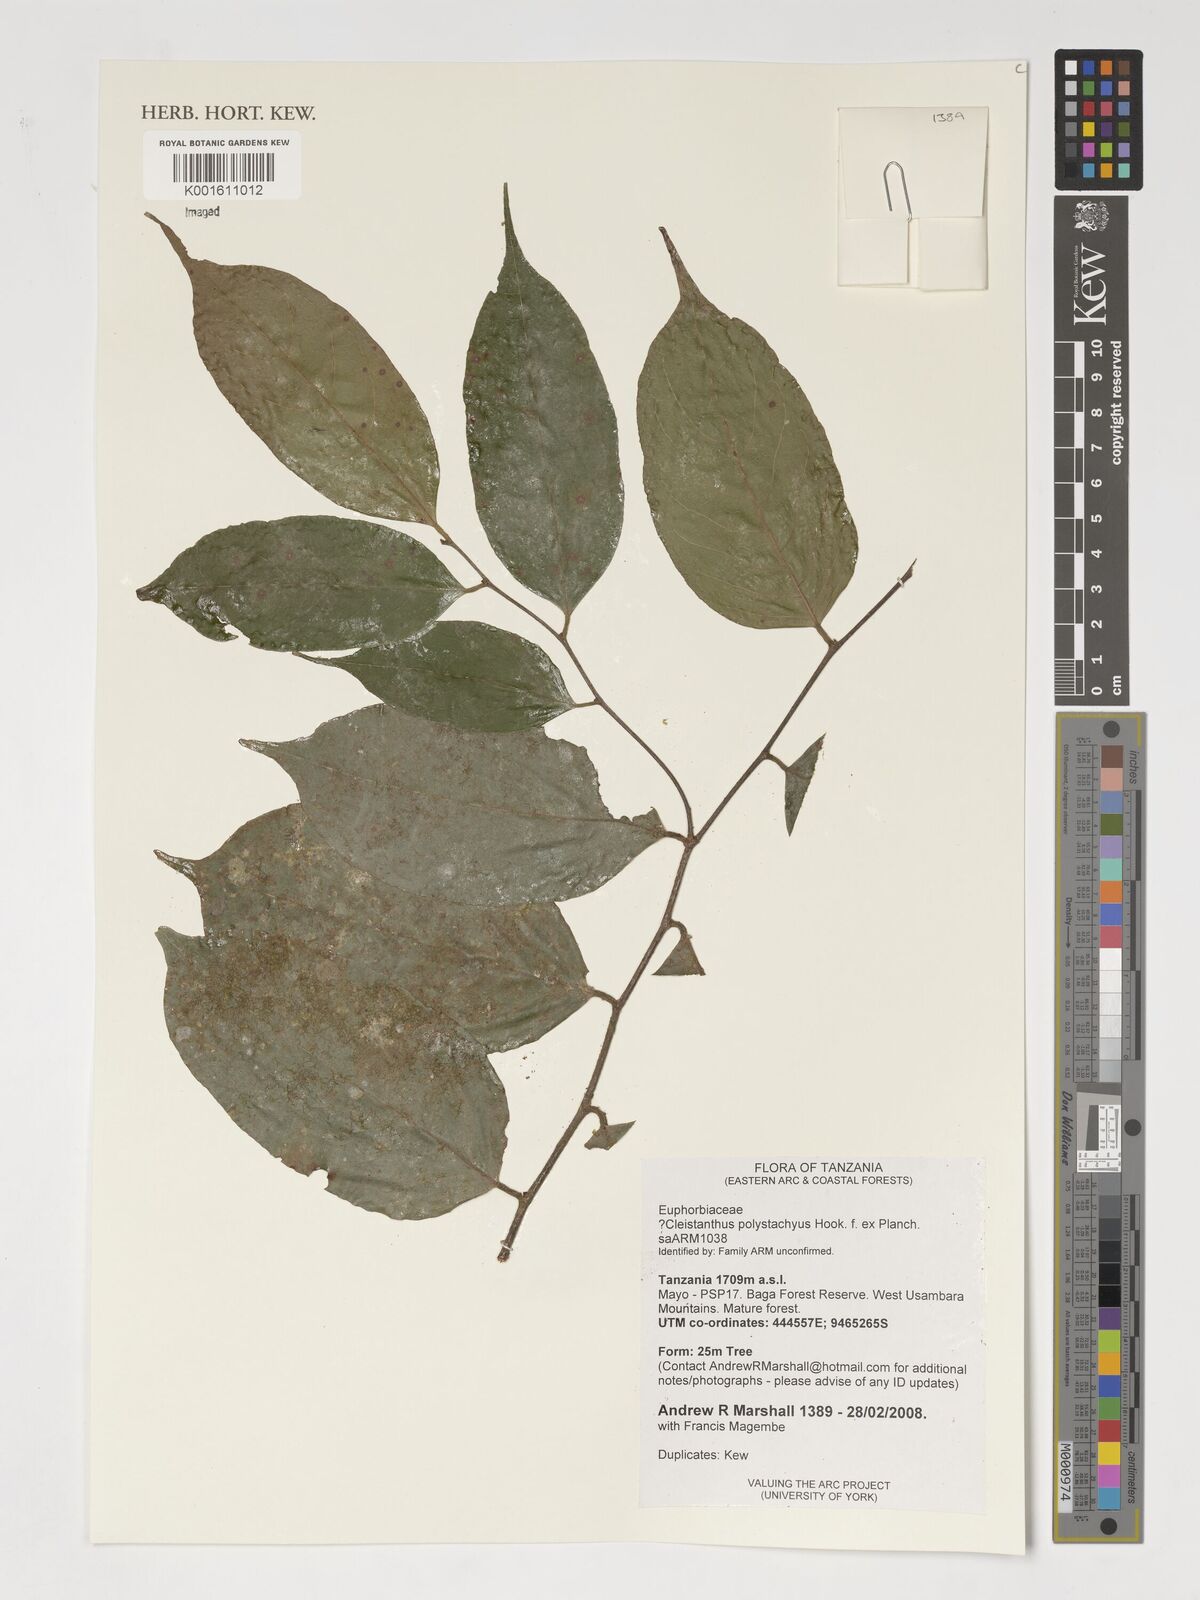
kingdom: Plantae
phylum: Tracheophyta
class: Magnoliopsida
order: Malpighiales
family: Phyllanthaceae
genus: Cleistanthus
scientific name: Cleistanthus polystachyus
